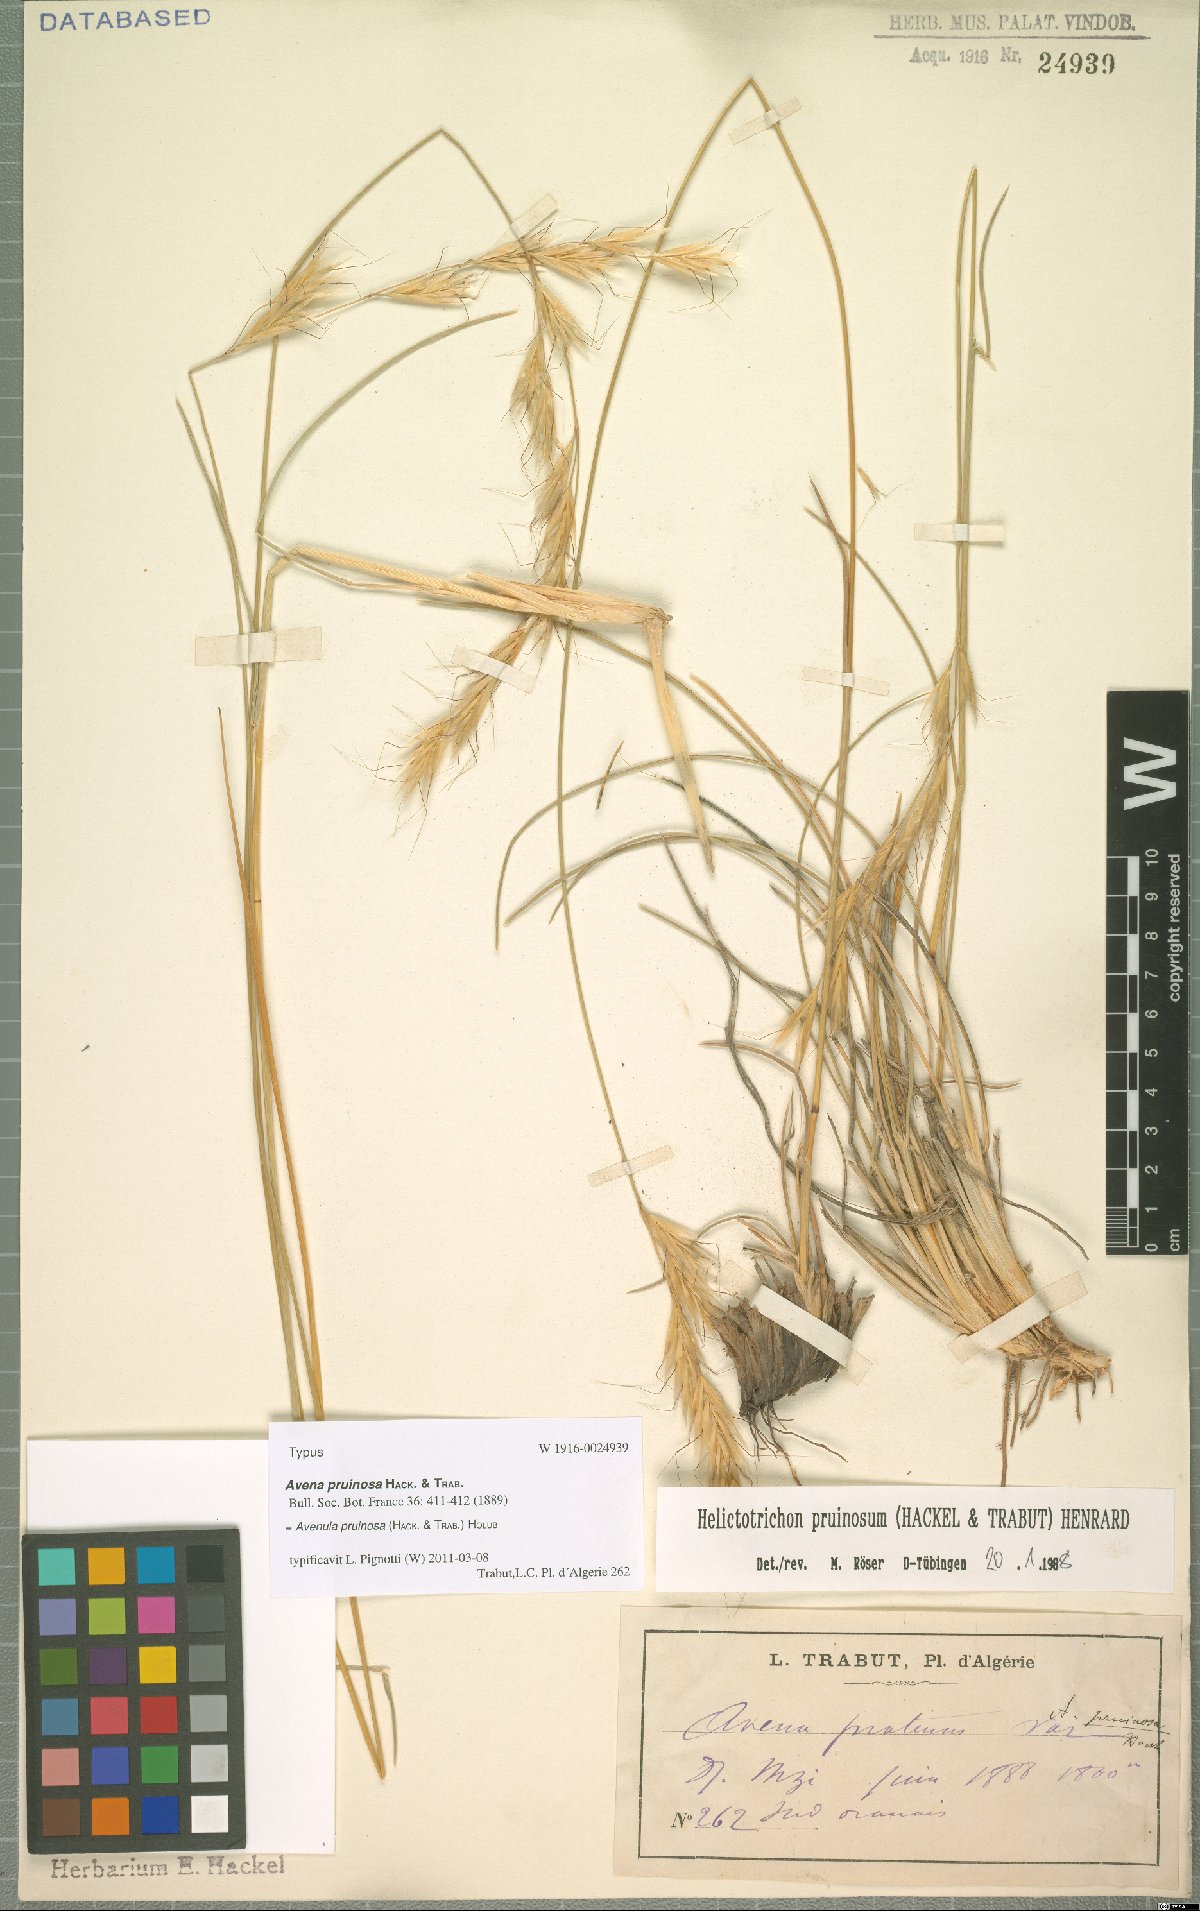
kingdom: Plantae
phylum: Tracheophyta
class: Liliopsida
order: Poales
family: Poaceae
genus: Helictochloa
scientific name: Helictochloa pruinosa
